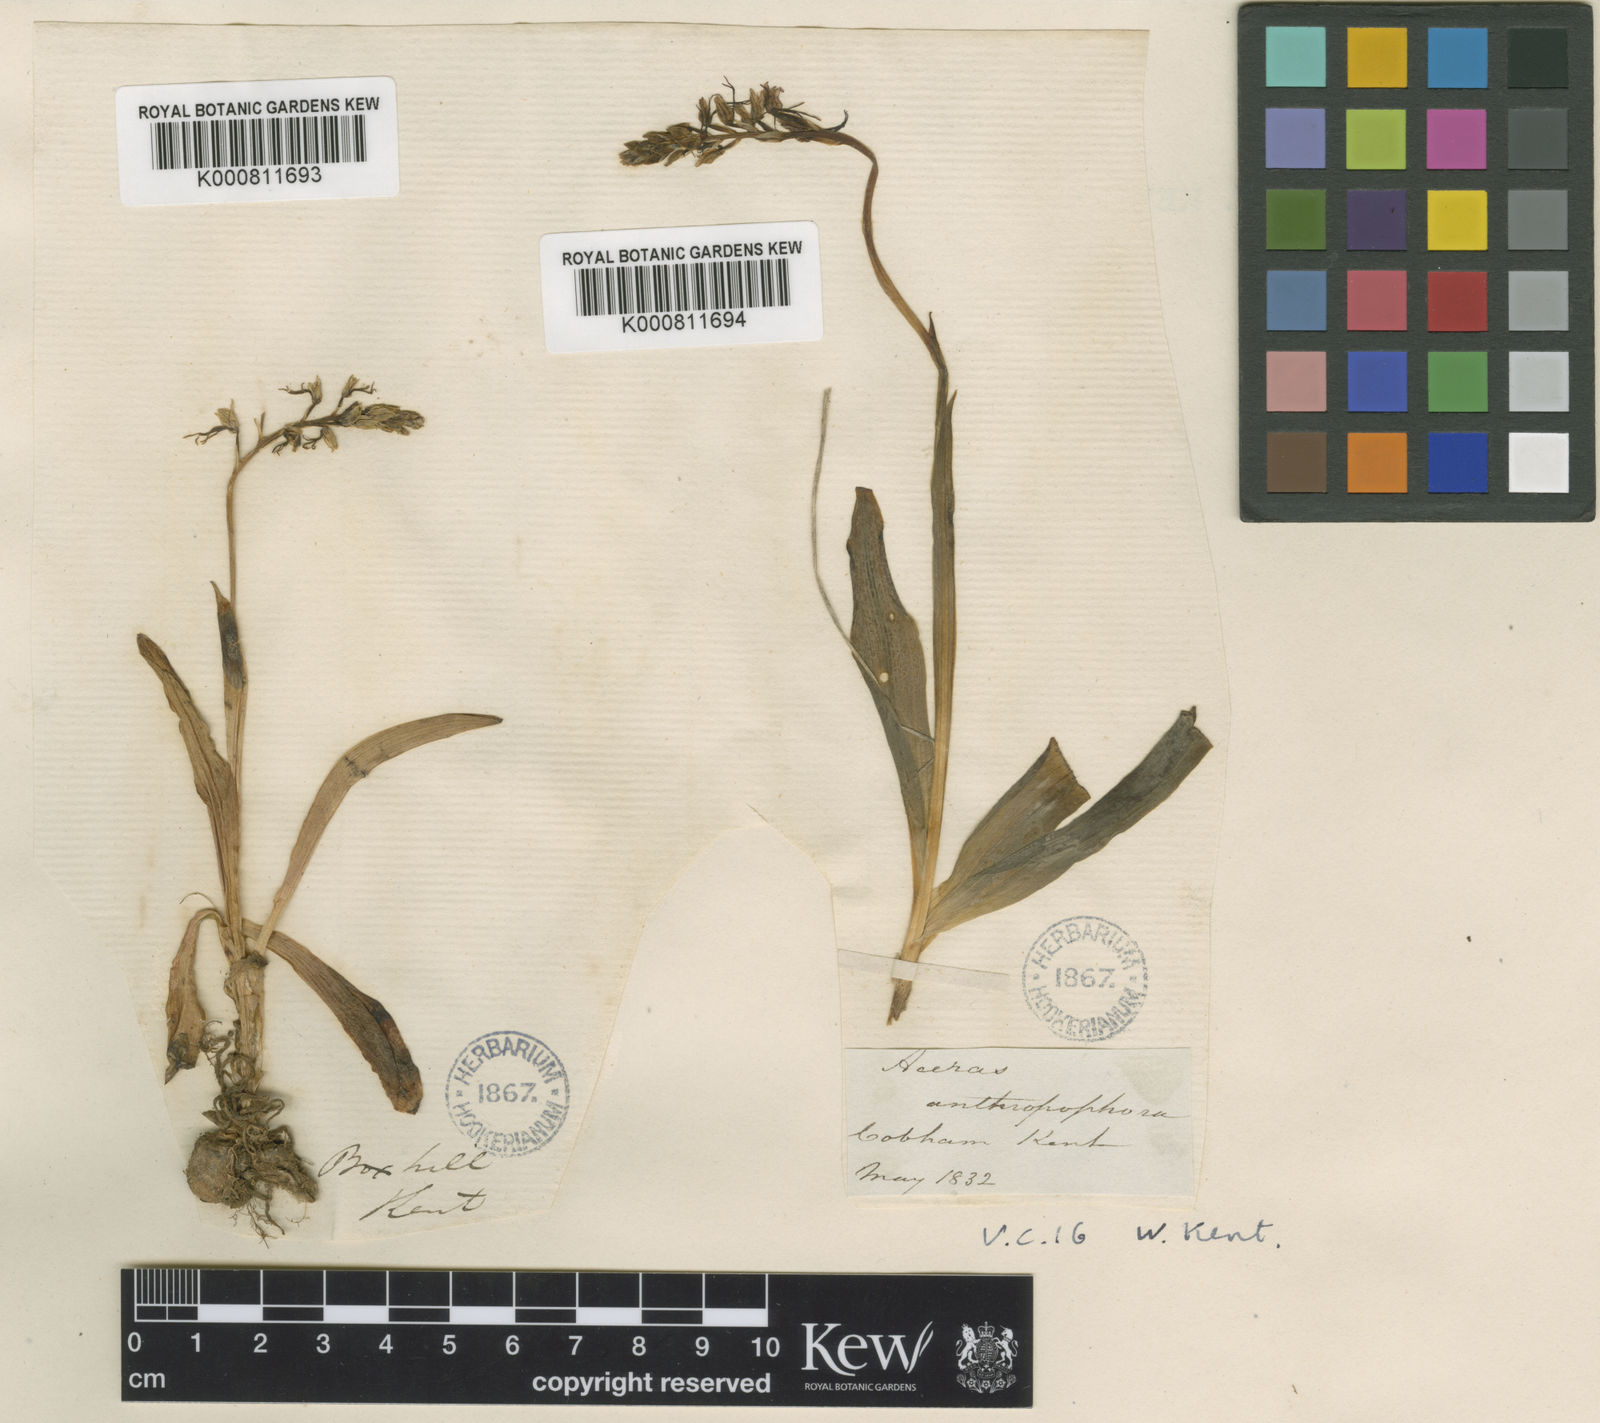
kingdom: Plantae
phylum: Tracheophyta
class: Liliopsida
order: Asparagales
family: Orchidaceae
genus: Orchis
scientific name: Orchis
